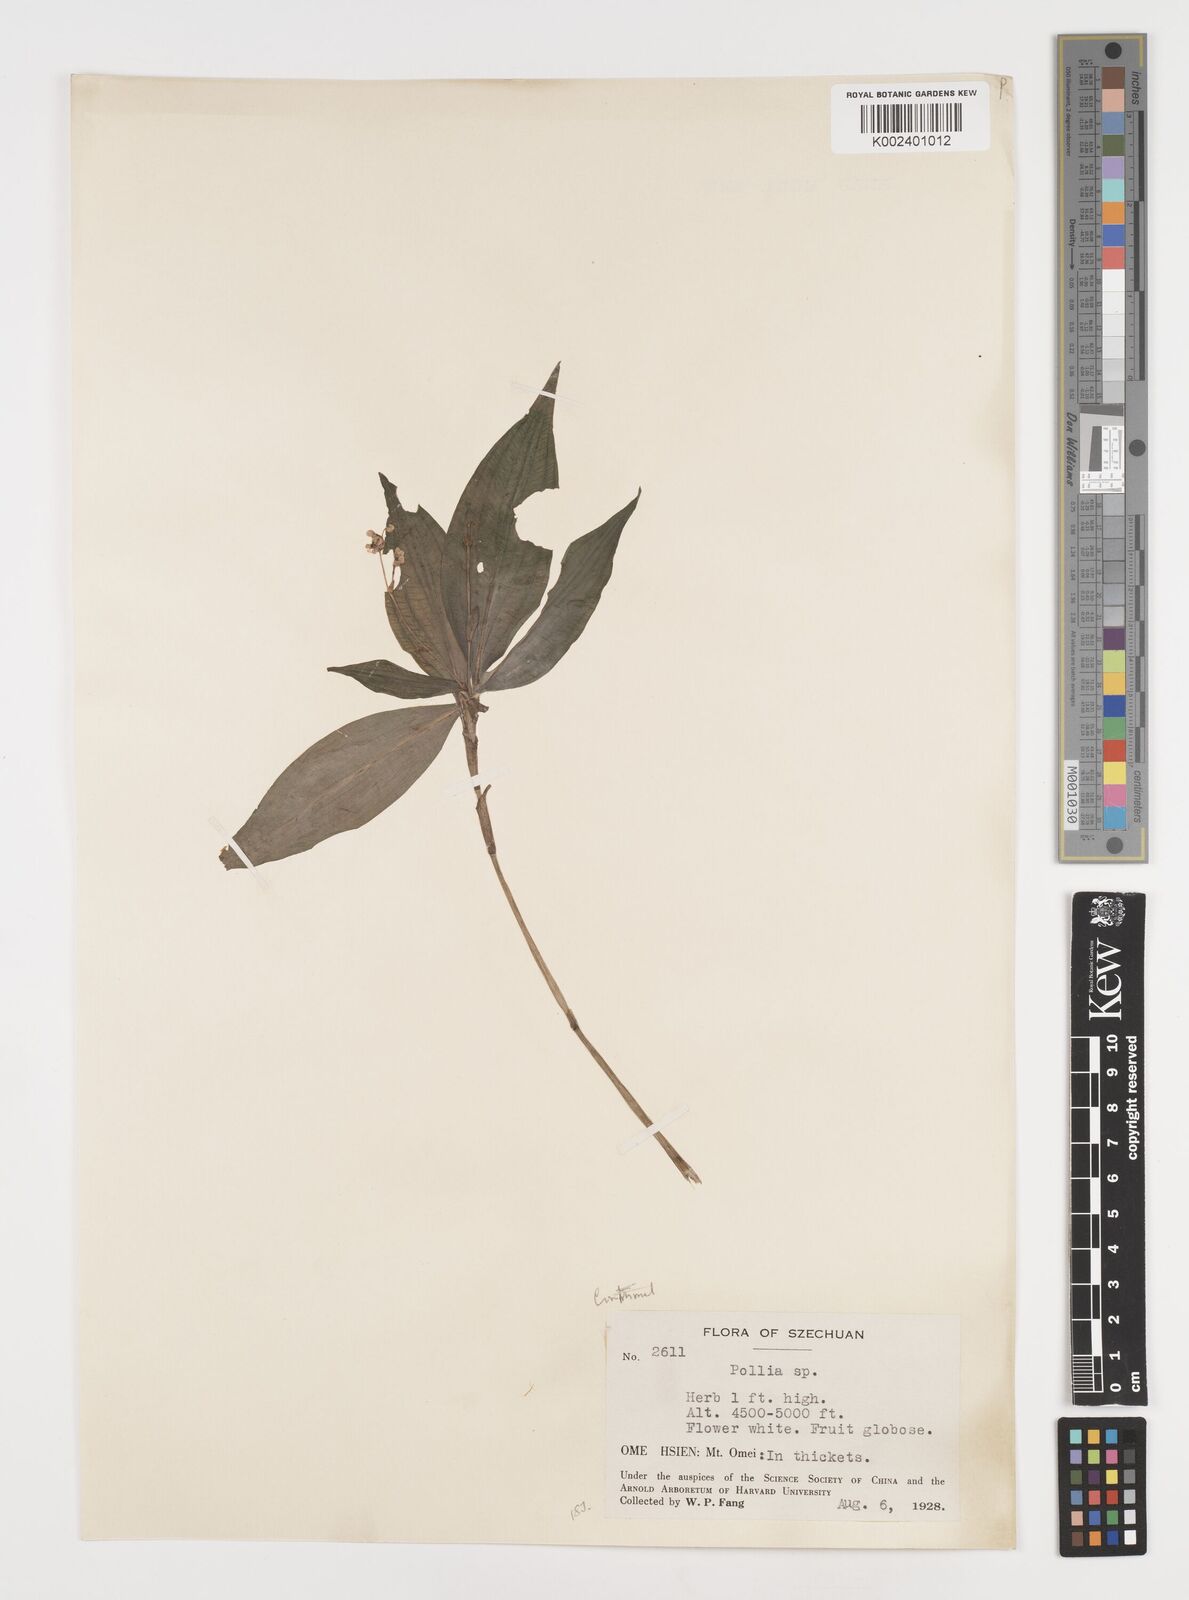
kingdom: Plantae
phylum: Tracheophyta
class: Liliopsida
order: Commelinales
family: Commelinaceae
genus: Pollia
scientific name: Pollia zollingeri
